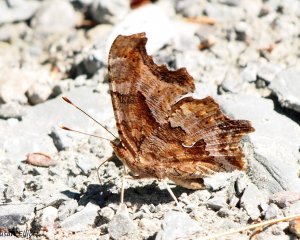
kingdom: Animalia
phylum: Arthropoda
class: Insecta
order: Lepidoptera
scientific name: Lepidoptera
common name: Butterflies
